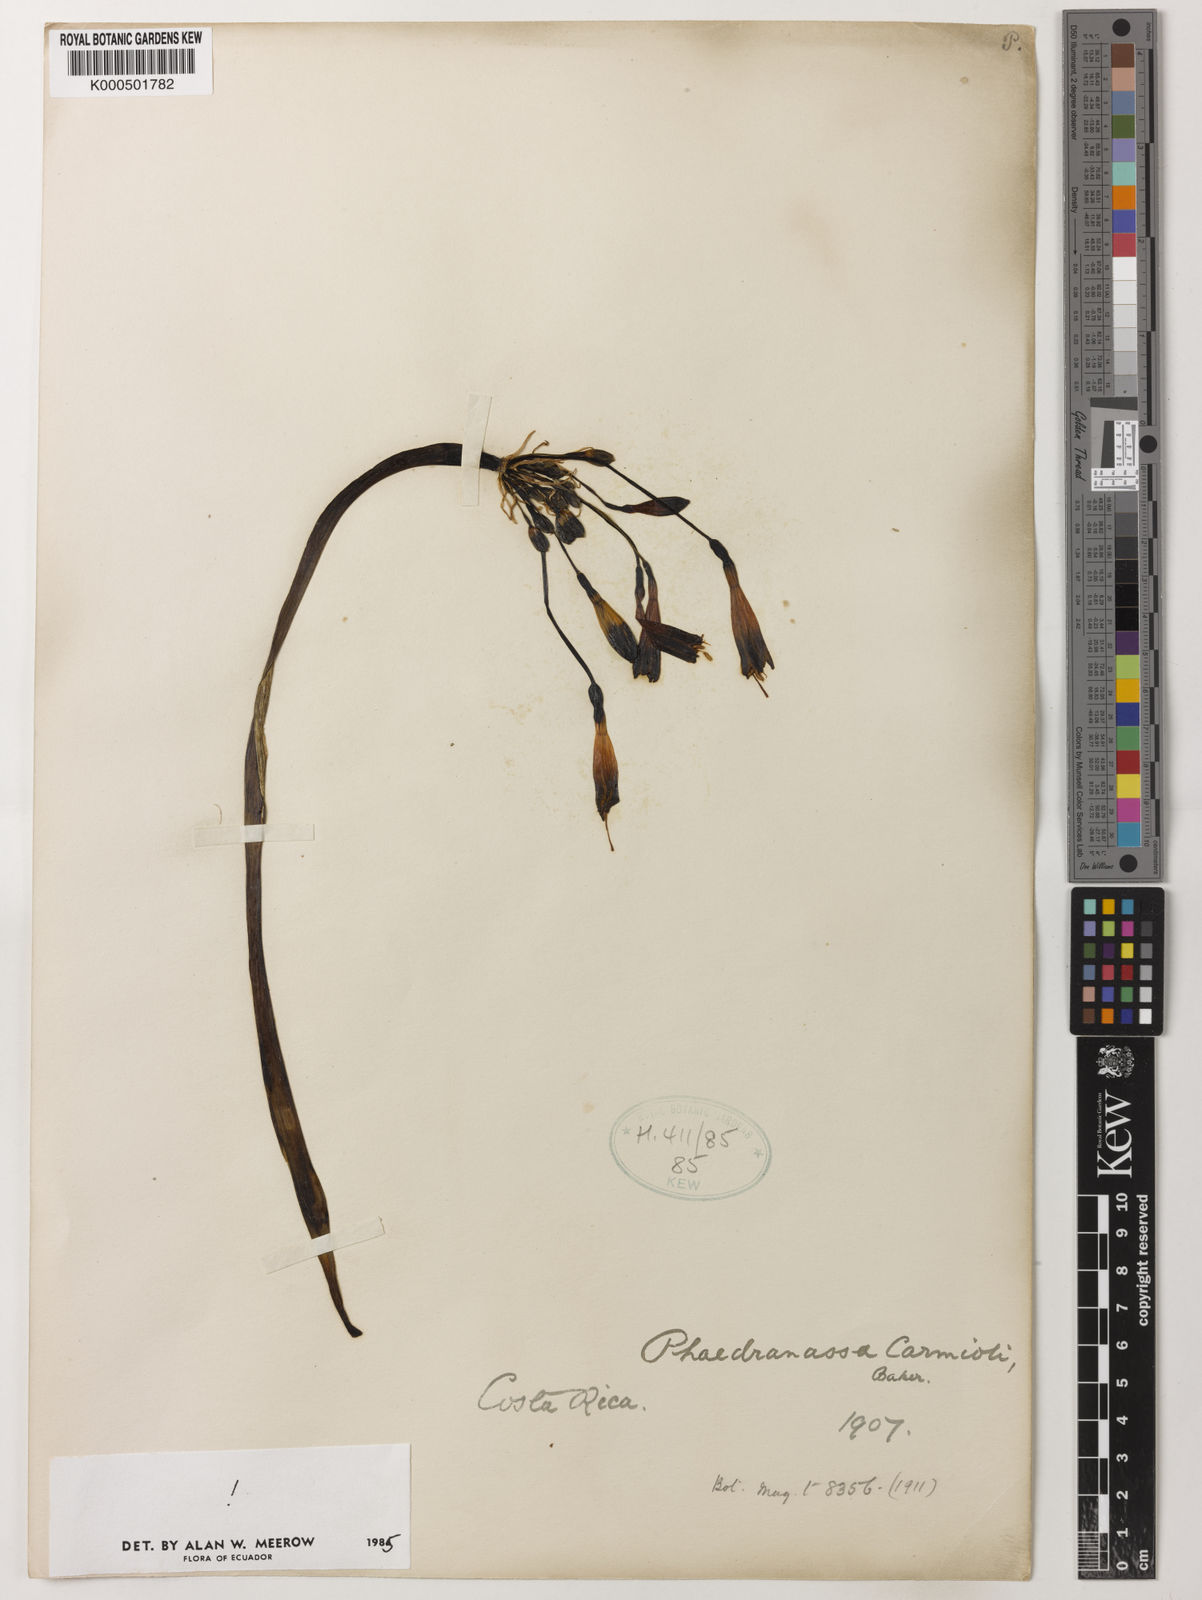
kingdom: Plantae
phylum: Tracheophyta
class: Liliopsida
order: Asparagales
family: Amaryllidaceae
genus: Phaedranassa
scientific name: Phaedranassa carmiolii
